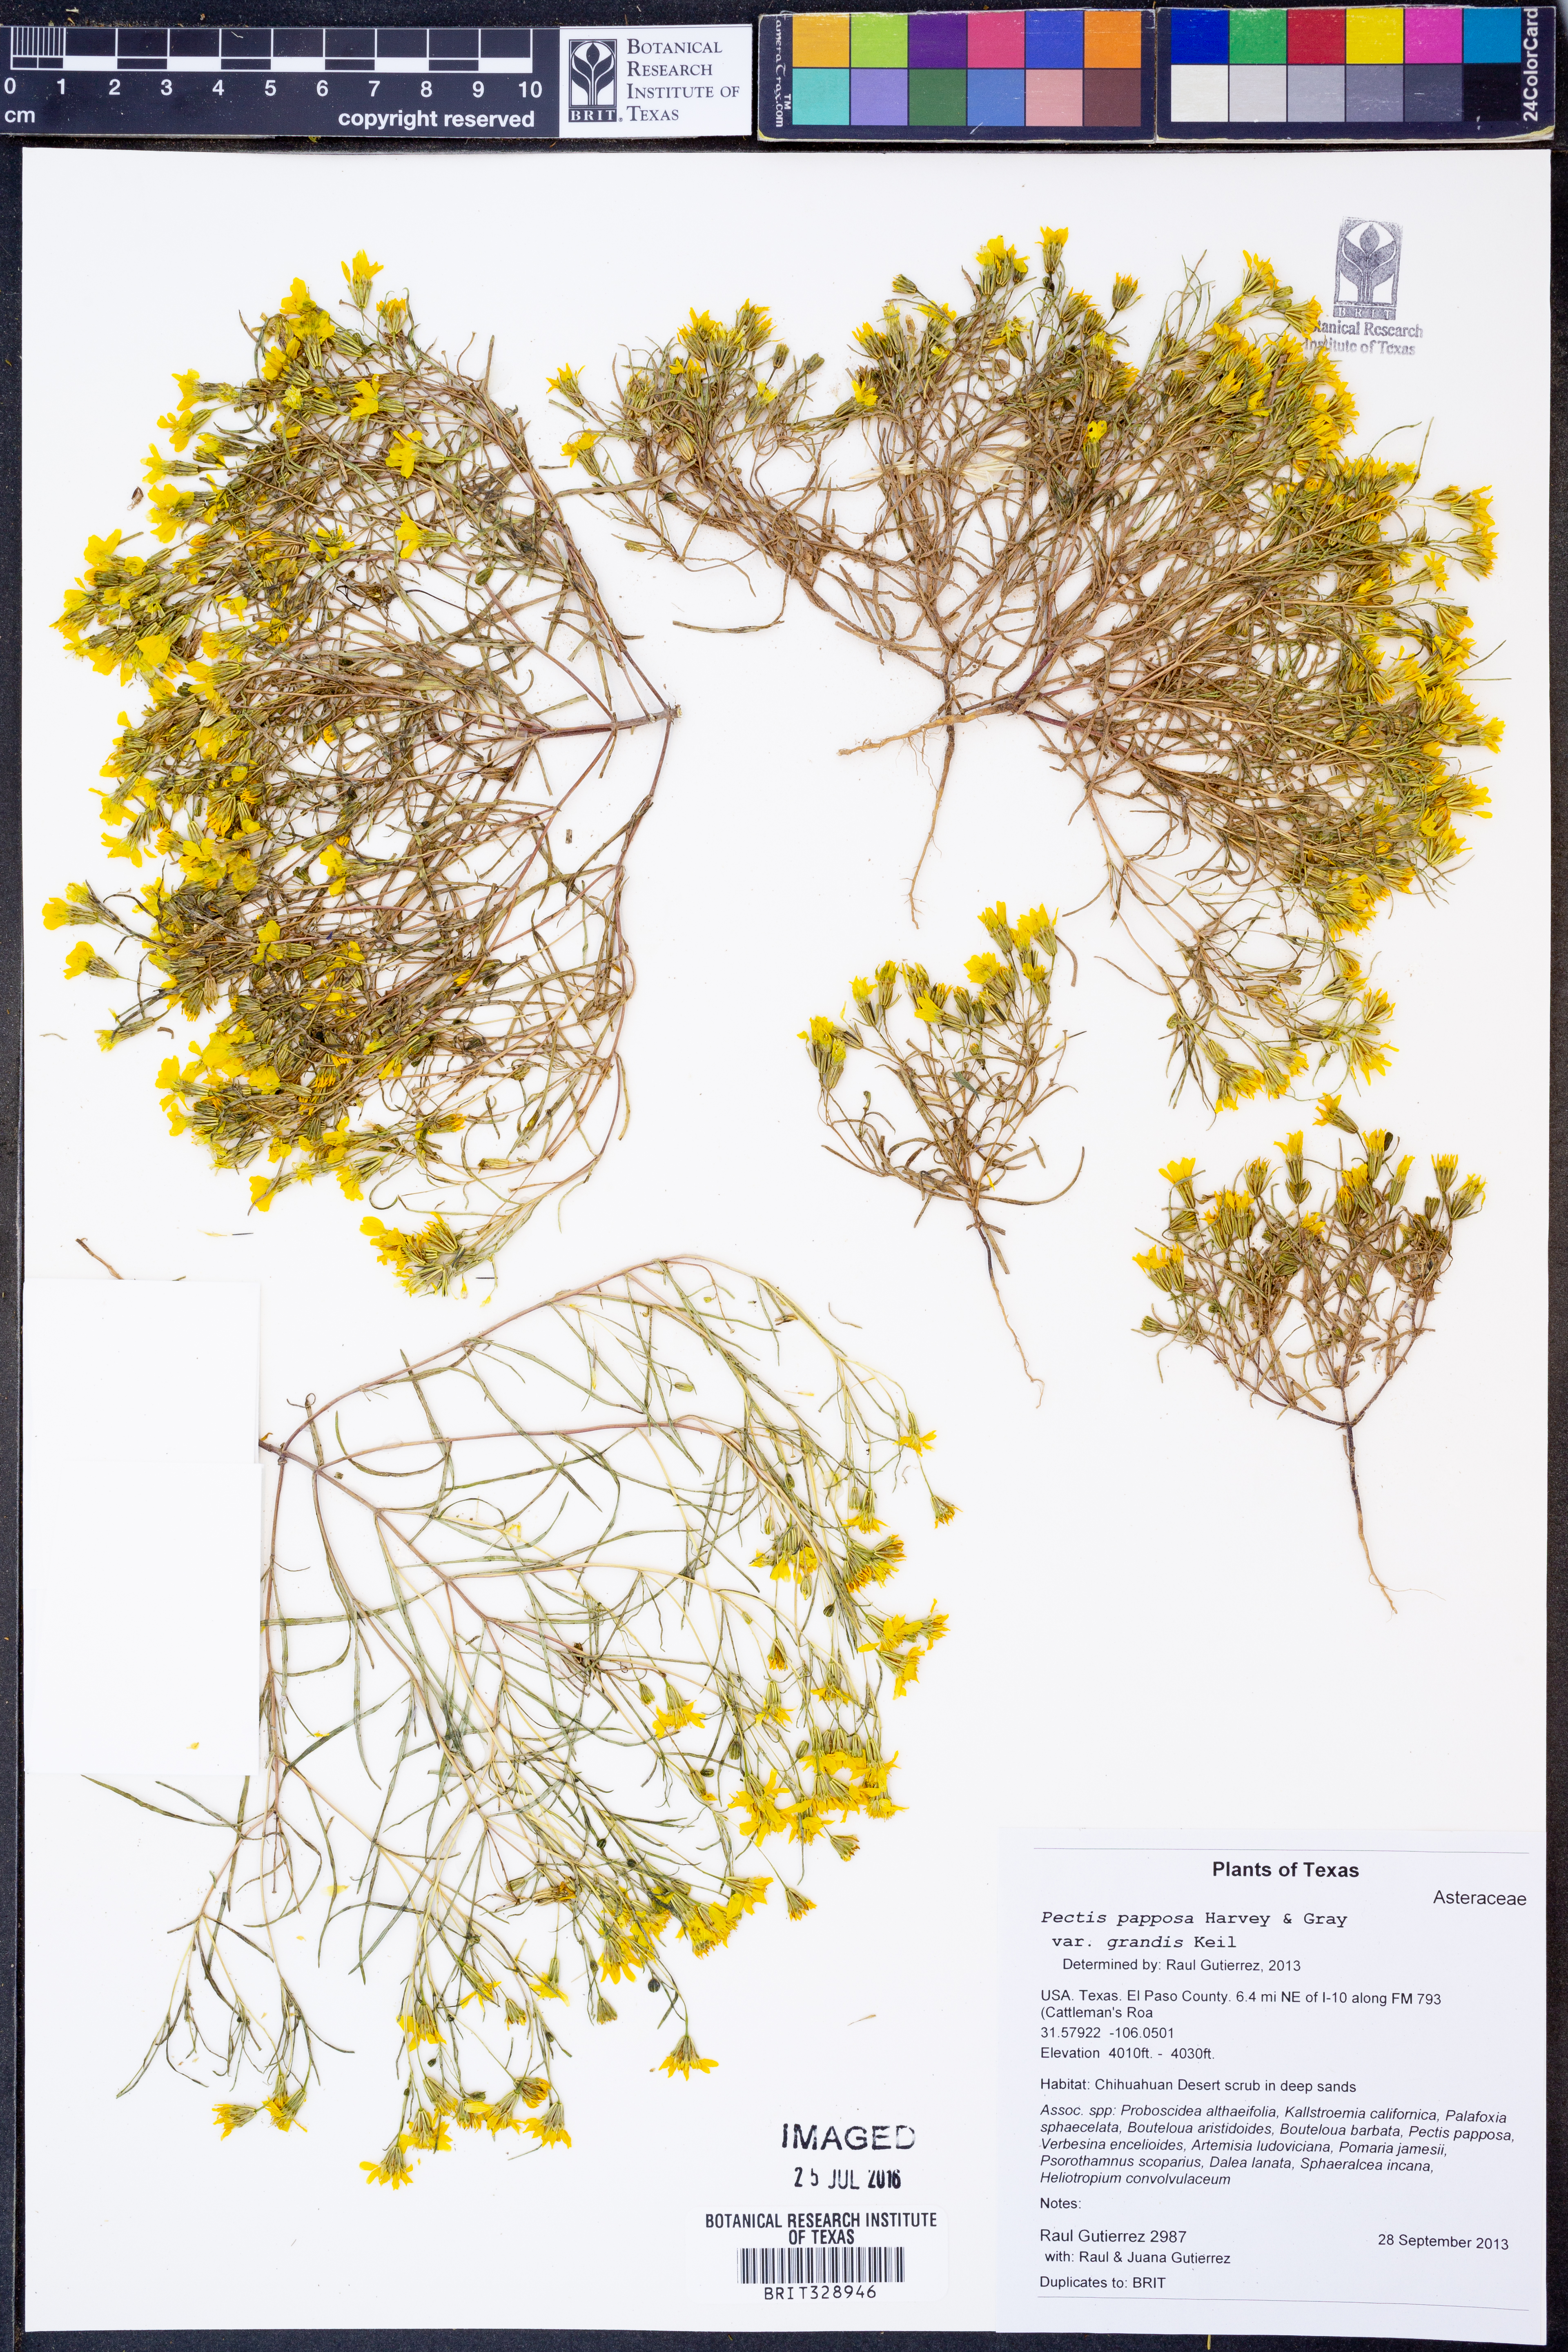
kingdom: Plantae
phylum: Tracheophyta
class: Magnoliopsida
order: Asterales
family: Asteraceae
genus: Pectis
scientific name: Pectis papposa
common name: Many-bristle chinchweed
